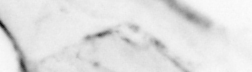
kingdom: Animalia
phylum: Chaetognatha
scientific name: Chaetognatha
